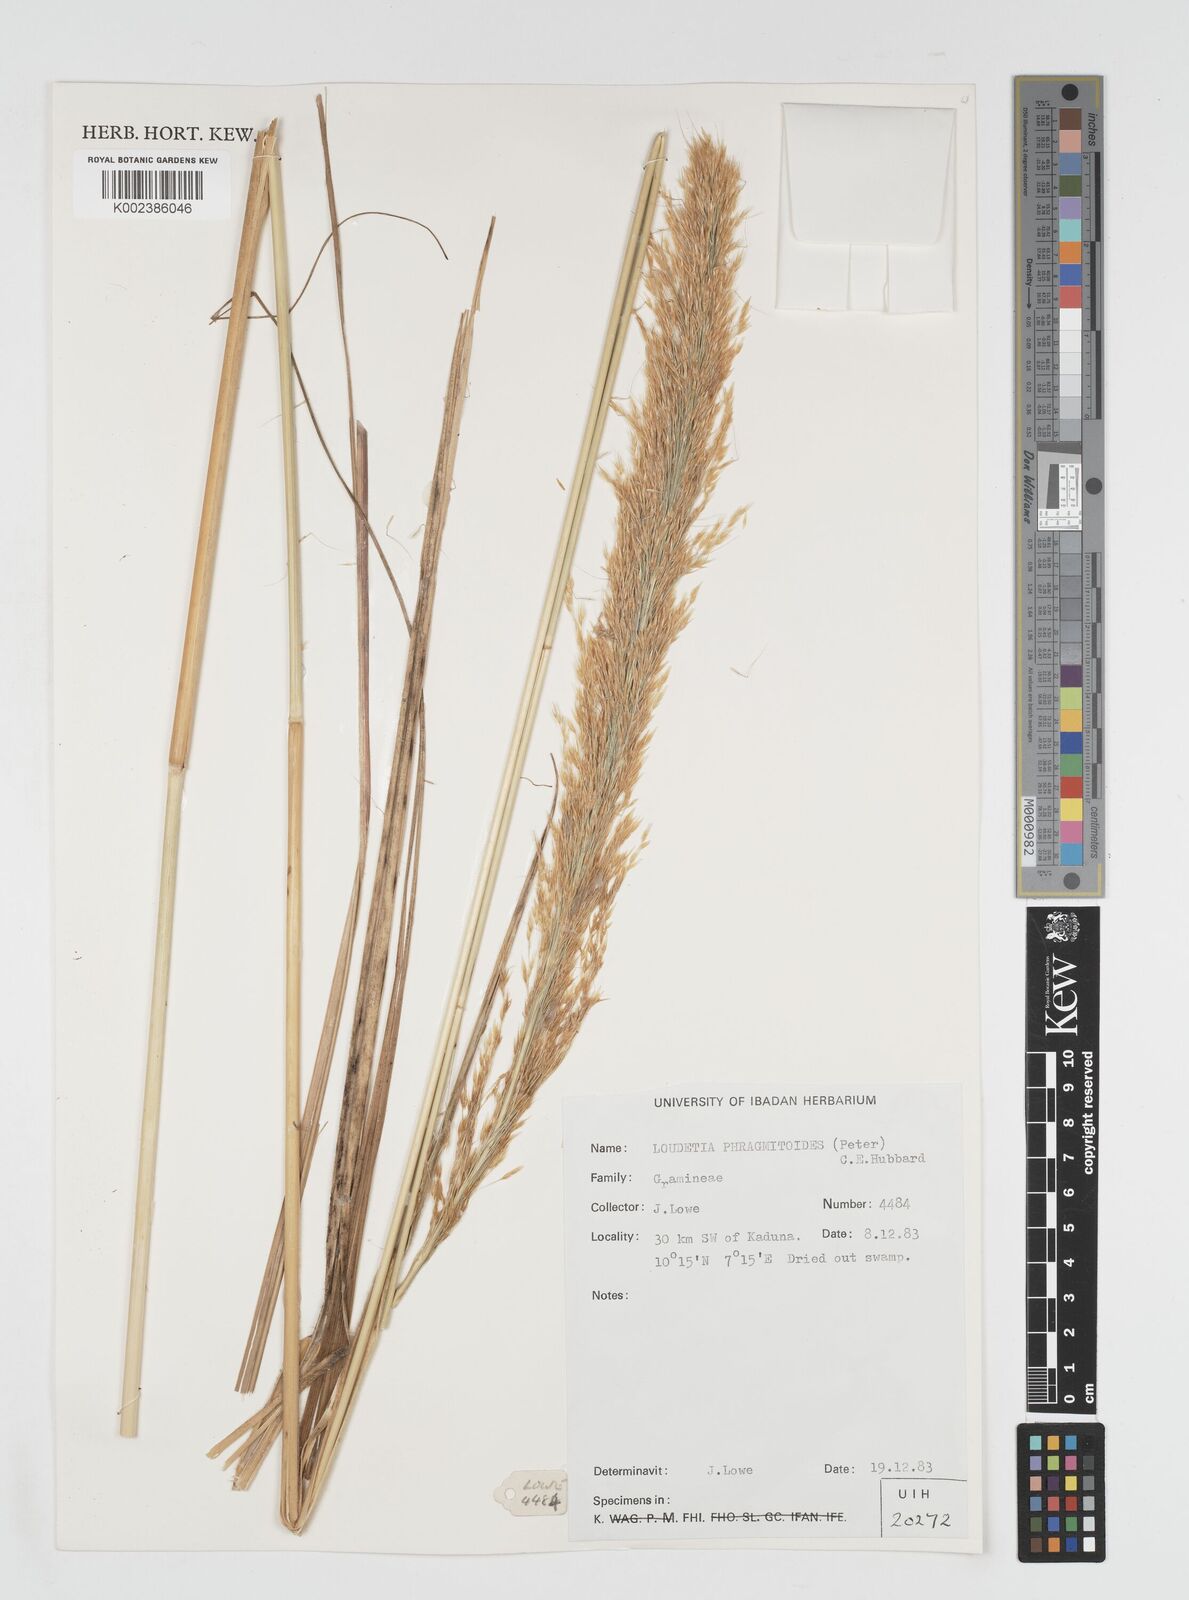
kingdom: Plantae
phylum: Tracheophyta
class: Liliopsida
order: Poales
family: Poaceae
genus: Loudetia
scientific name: Loudetia phragmitoides
